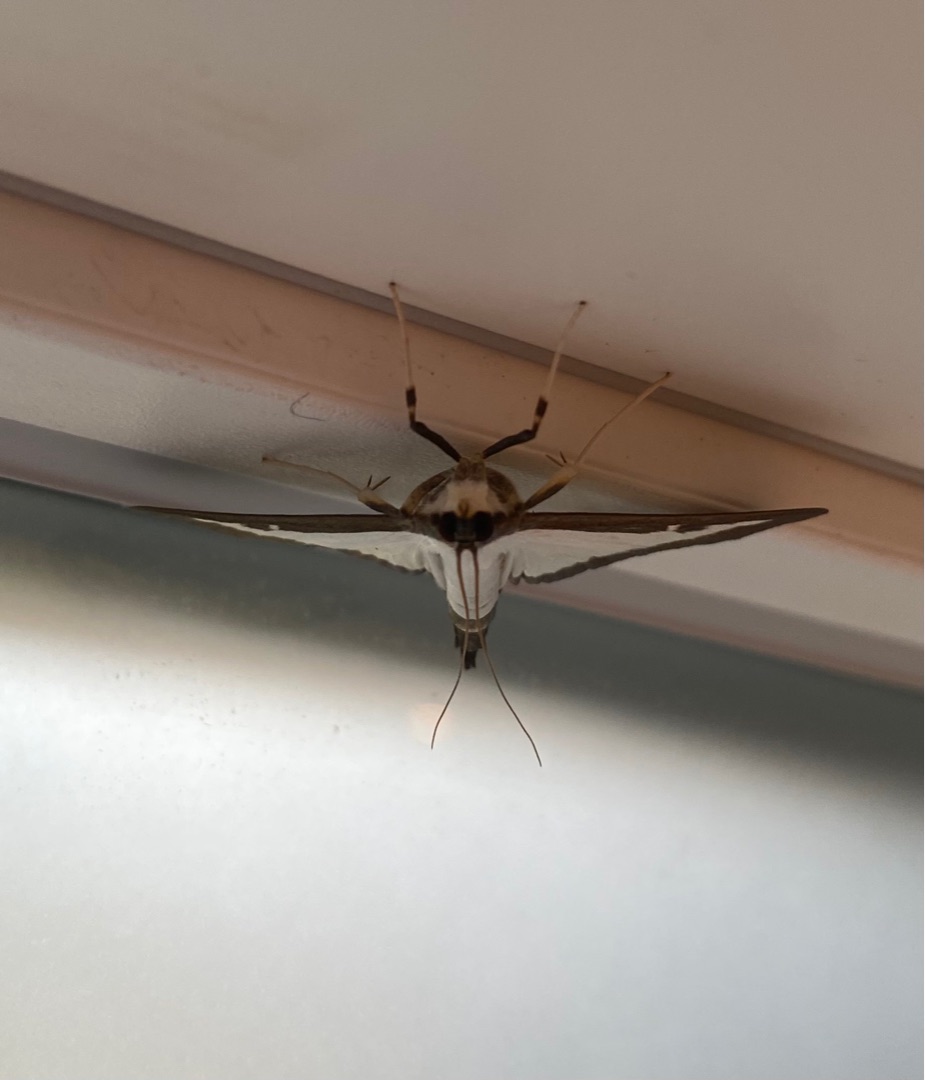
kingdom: Animalia
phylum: Arthropoda
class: Insecta
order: Lepidoptera
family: Crambidae
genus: Cydalima
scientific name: Cydalima perspectalis
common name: Buksbomhalvmøl
